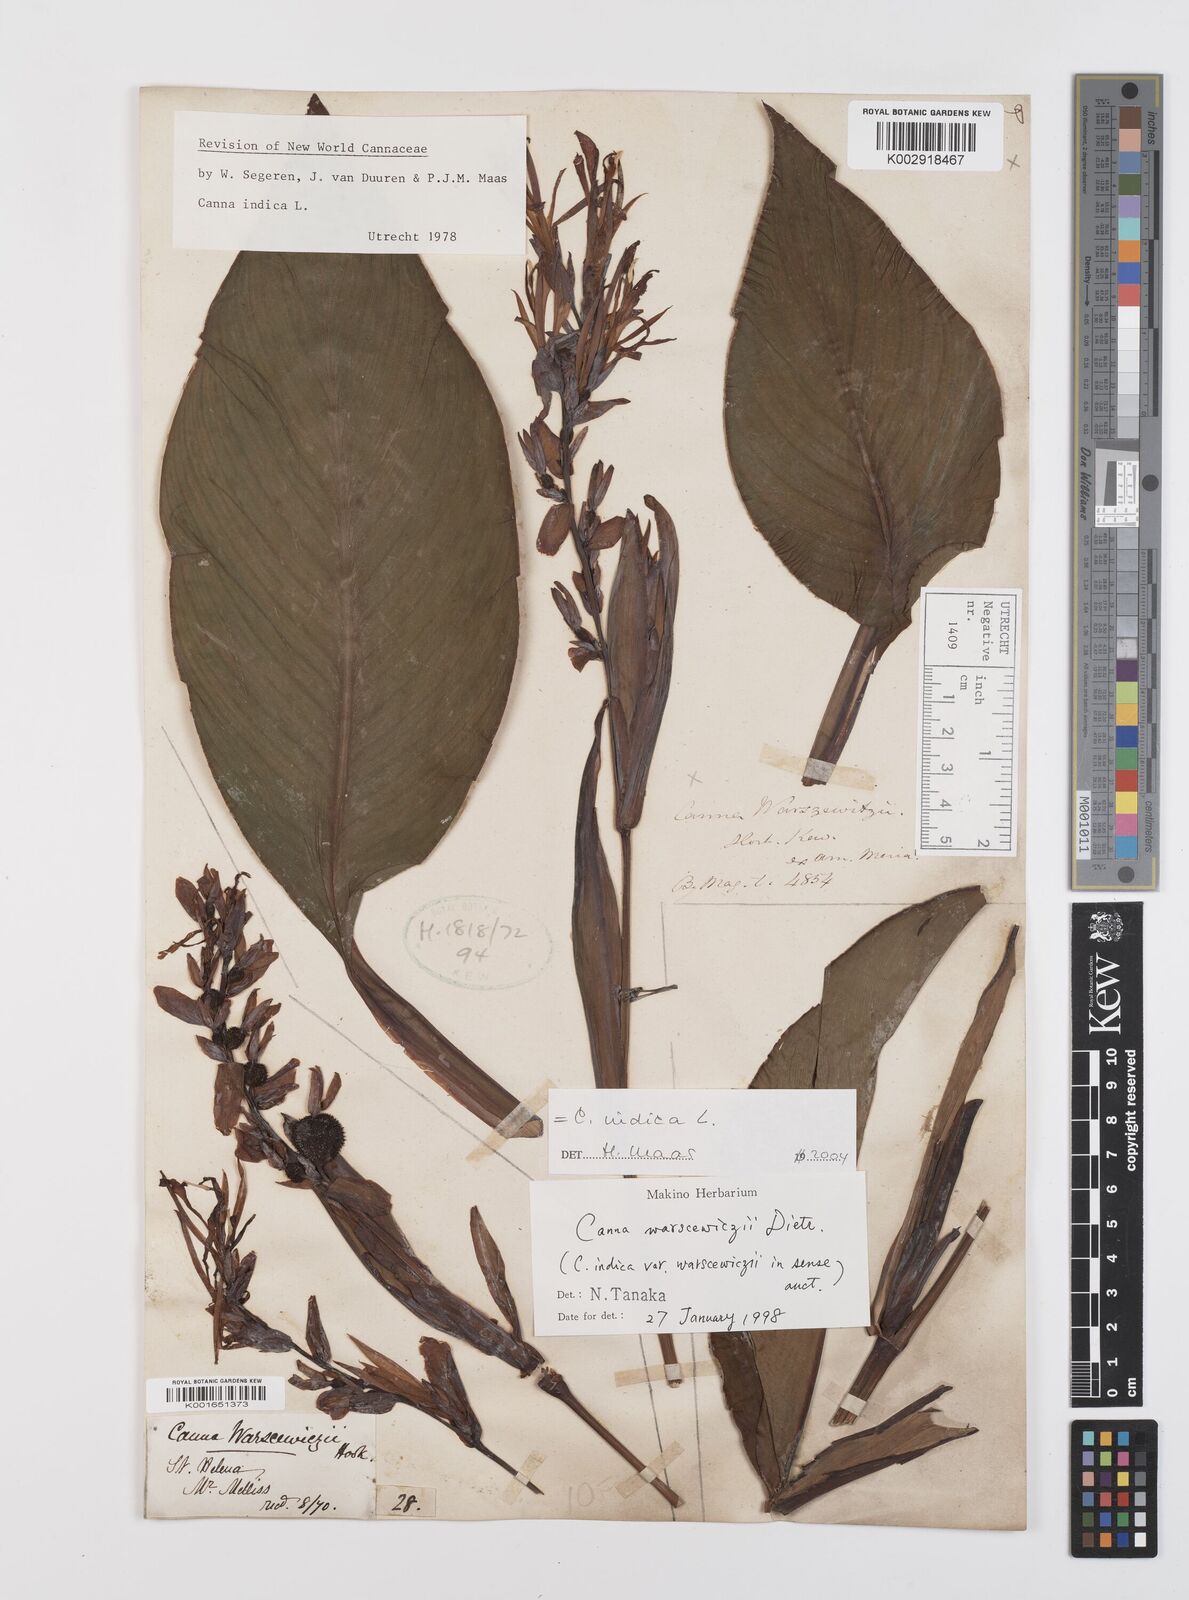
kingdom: Plantae
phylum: Tracheophyta
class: Liliopsida
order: Zingiberales
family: Cannaceae
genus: Canna
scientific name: Canna indica
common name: Indian shot
